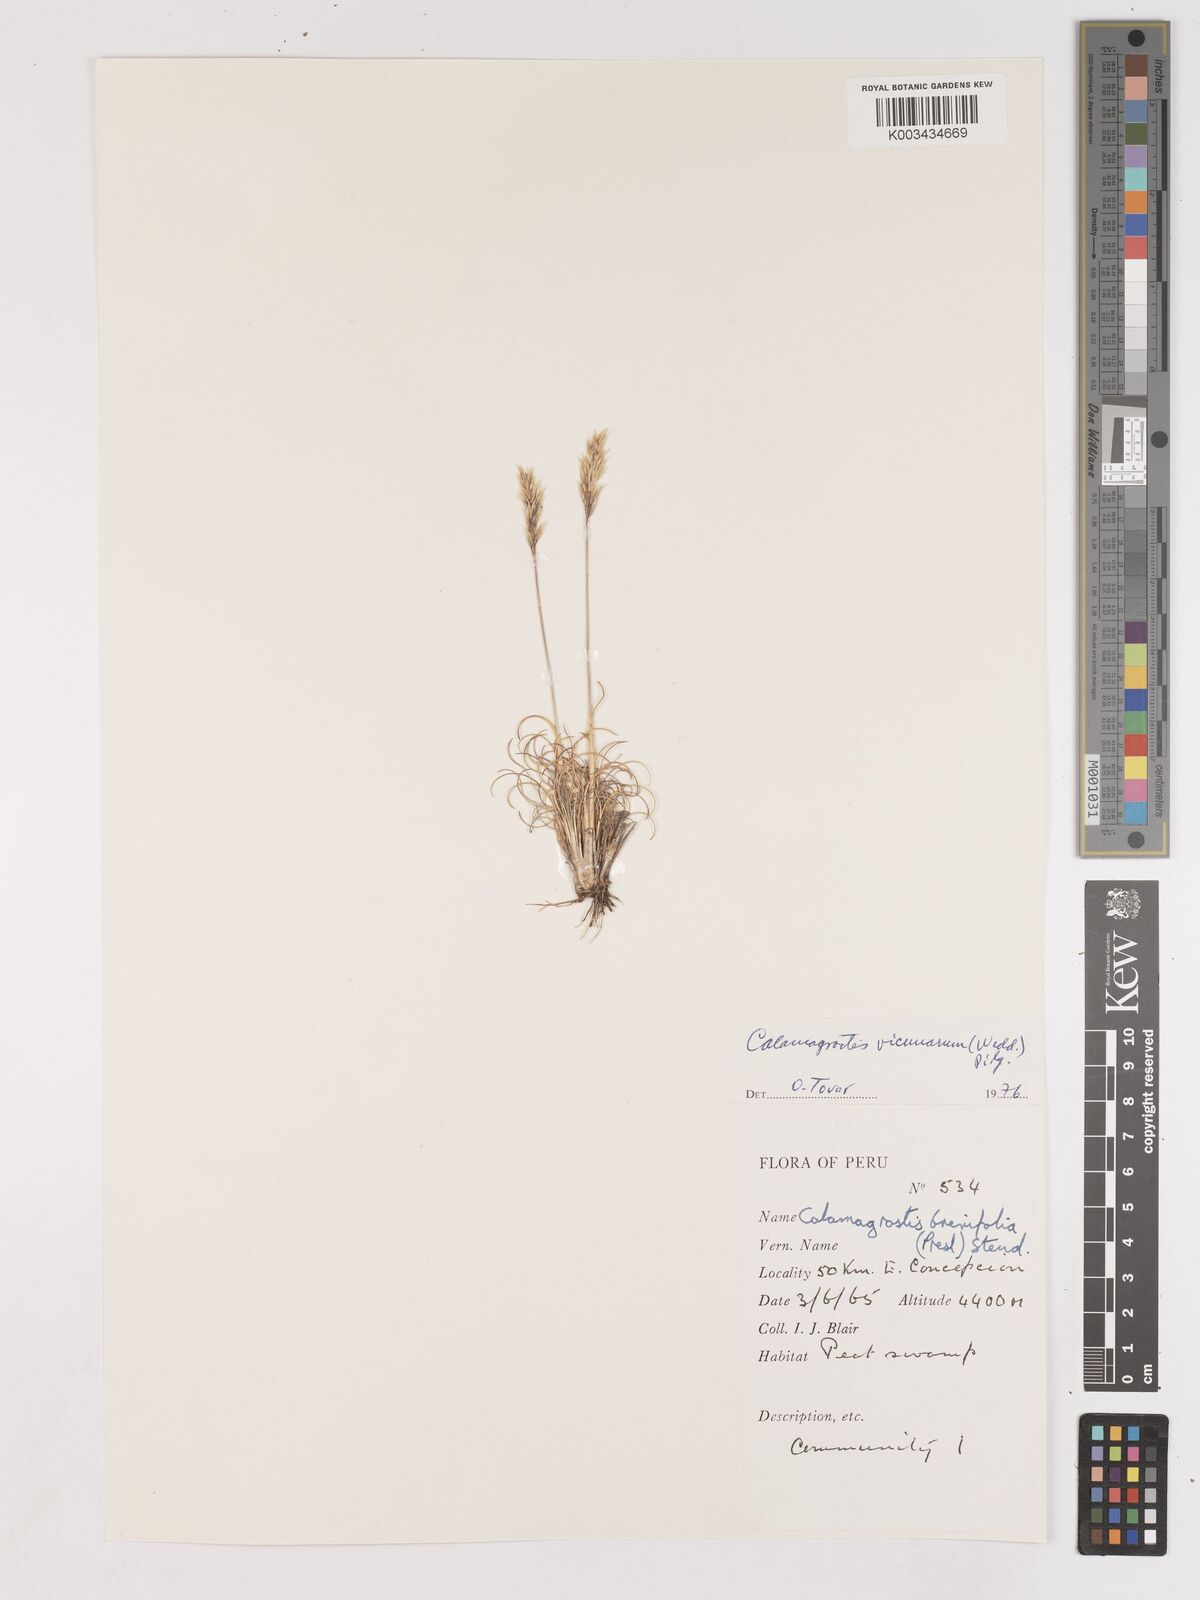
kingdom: Plantae
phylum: Tracheophyta
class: Liliopsida
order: Poales
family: Poaceae
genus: Cinnagrostis
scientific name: Cinnagrostis vicunarum
